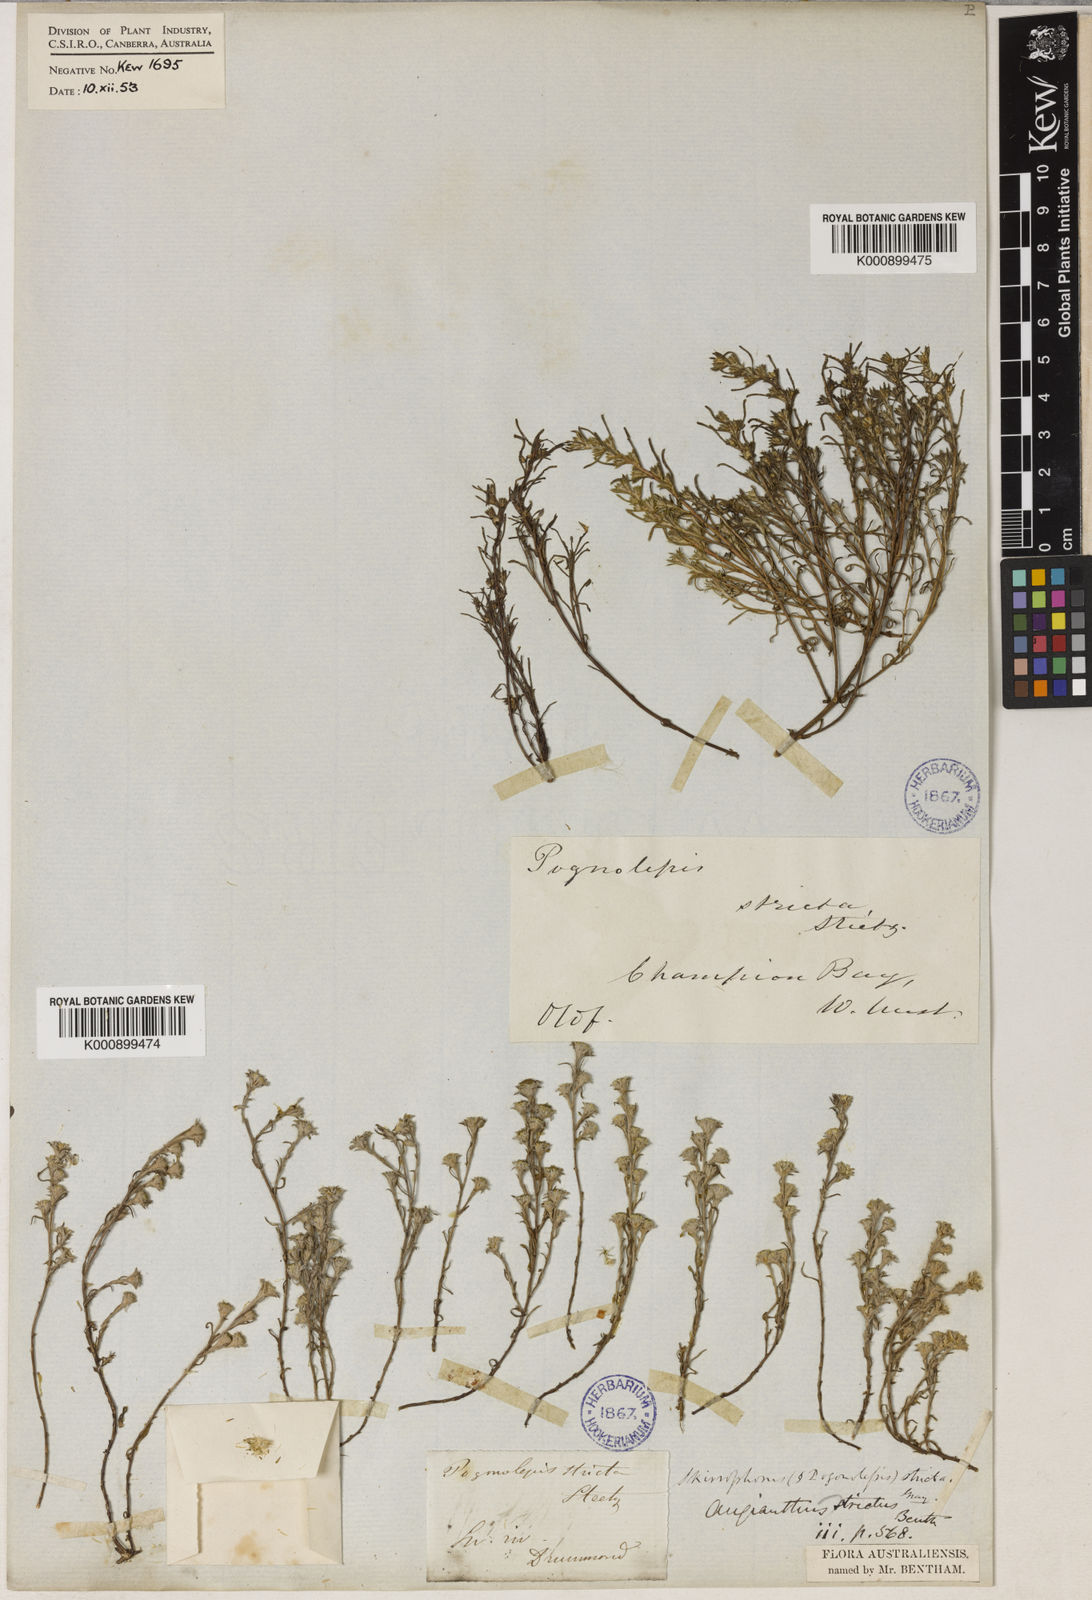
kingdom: Plantae
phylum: Tracheophyta
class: Magnoliopsida
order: Asterales
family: Asteraceae
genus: Pogonolepis
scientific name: Pogonolepis stricta
